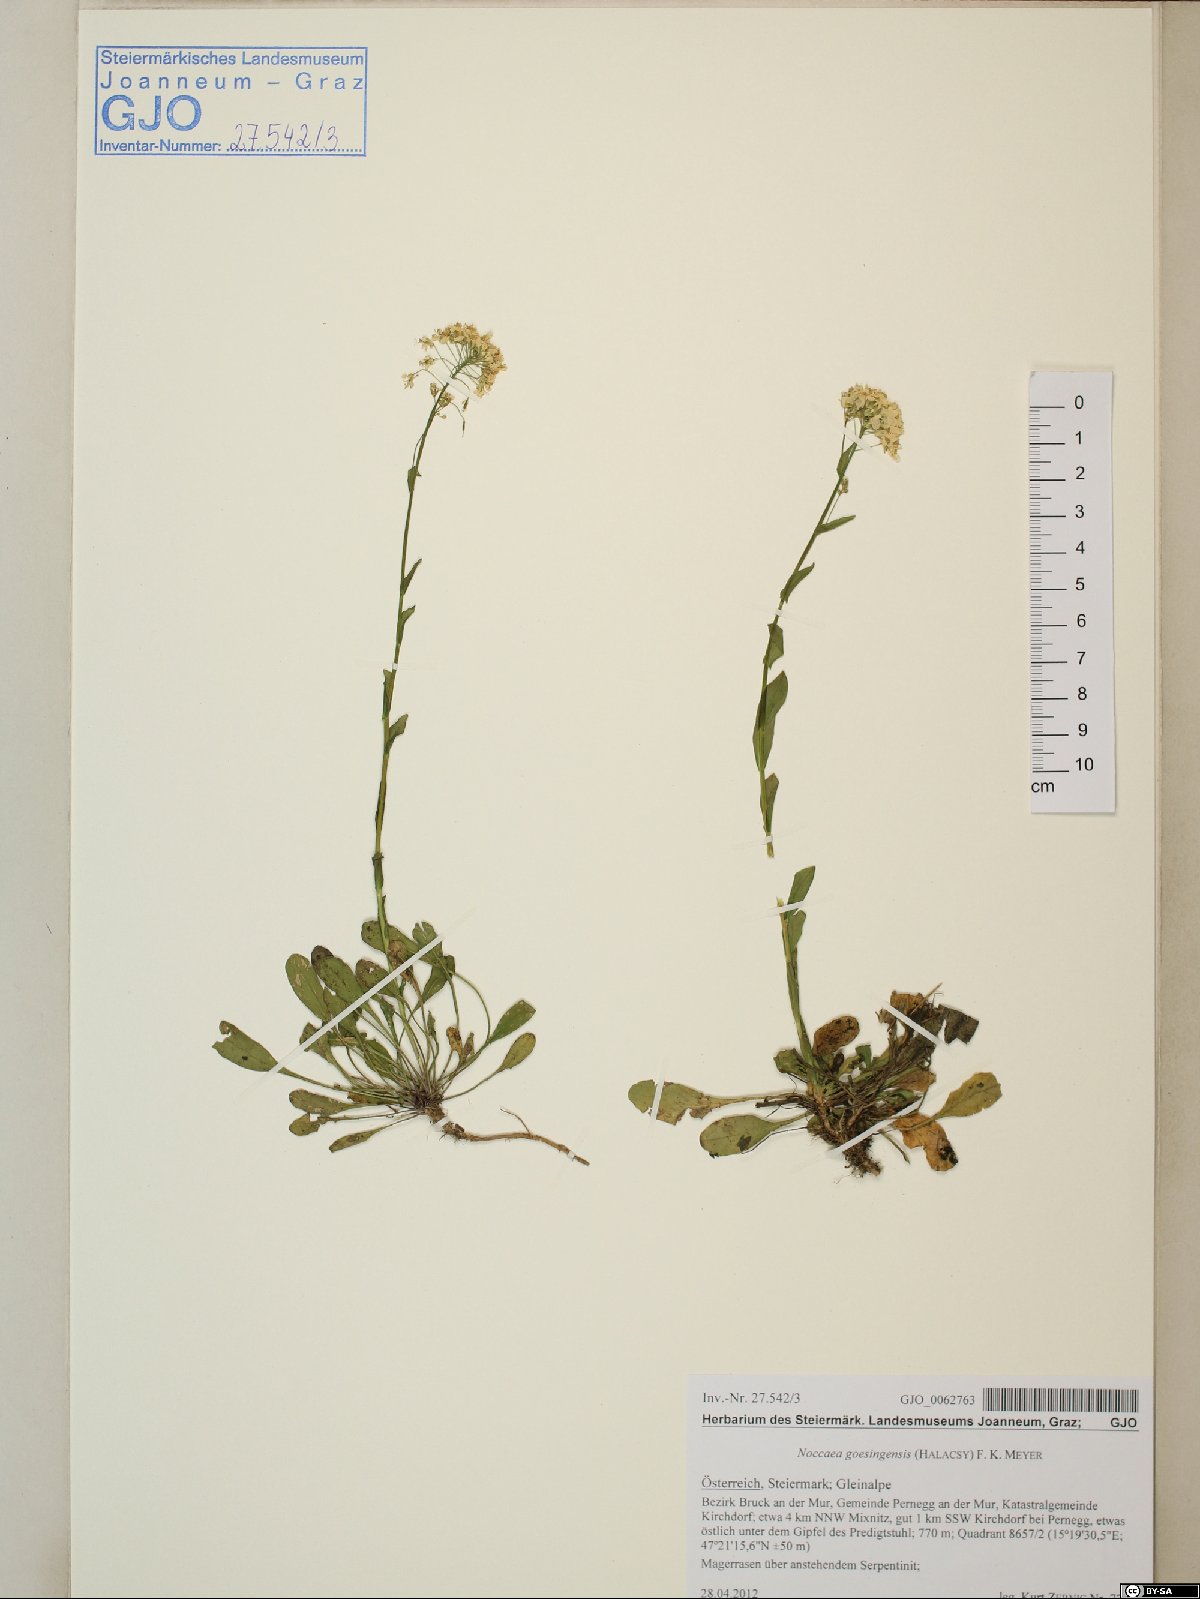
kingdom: Plantae
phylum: Tracheophyta
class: Magnoliopsida
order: Brassicales
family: Brassicaceae
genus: Noccaea
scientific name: Noccaea goesingensis
